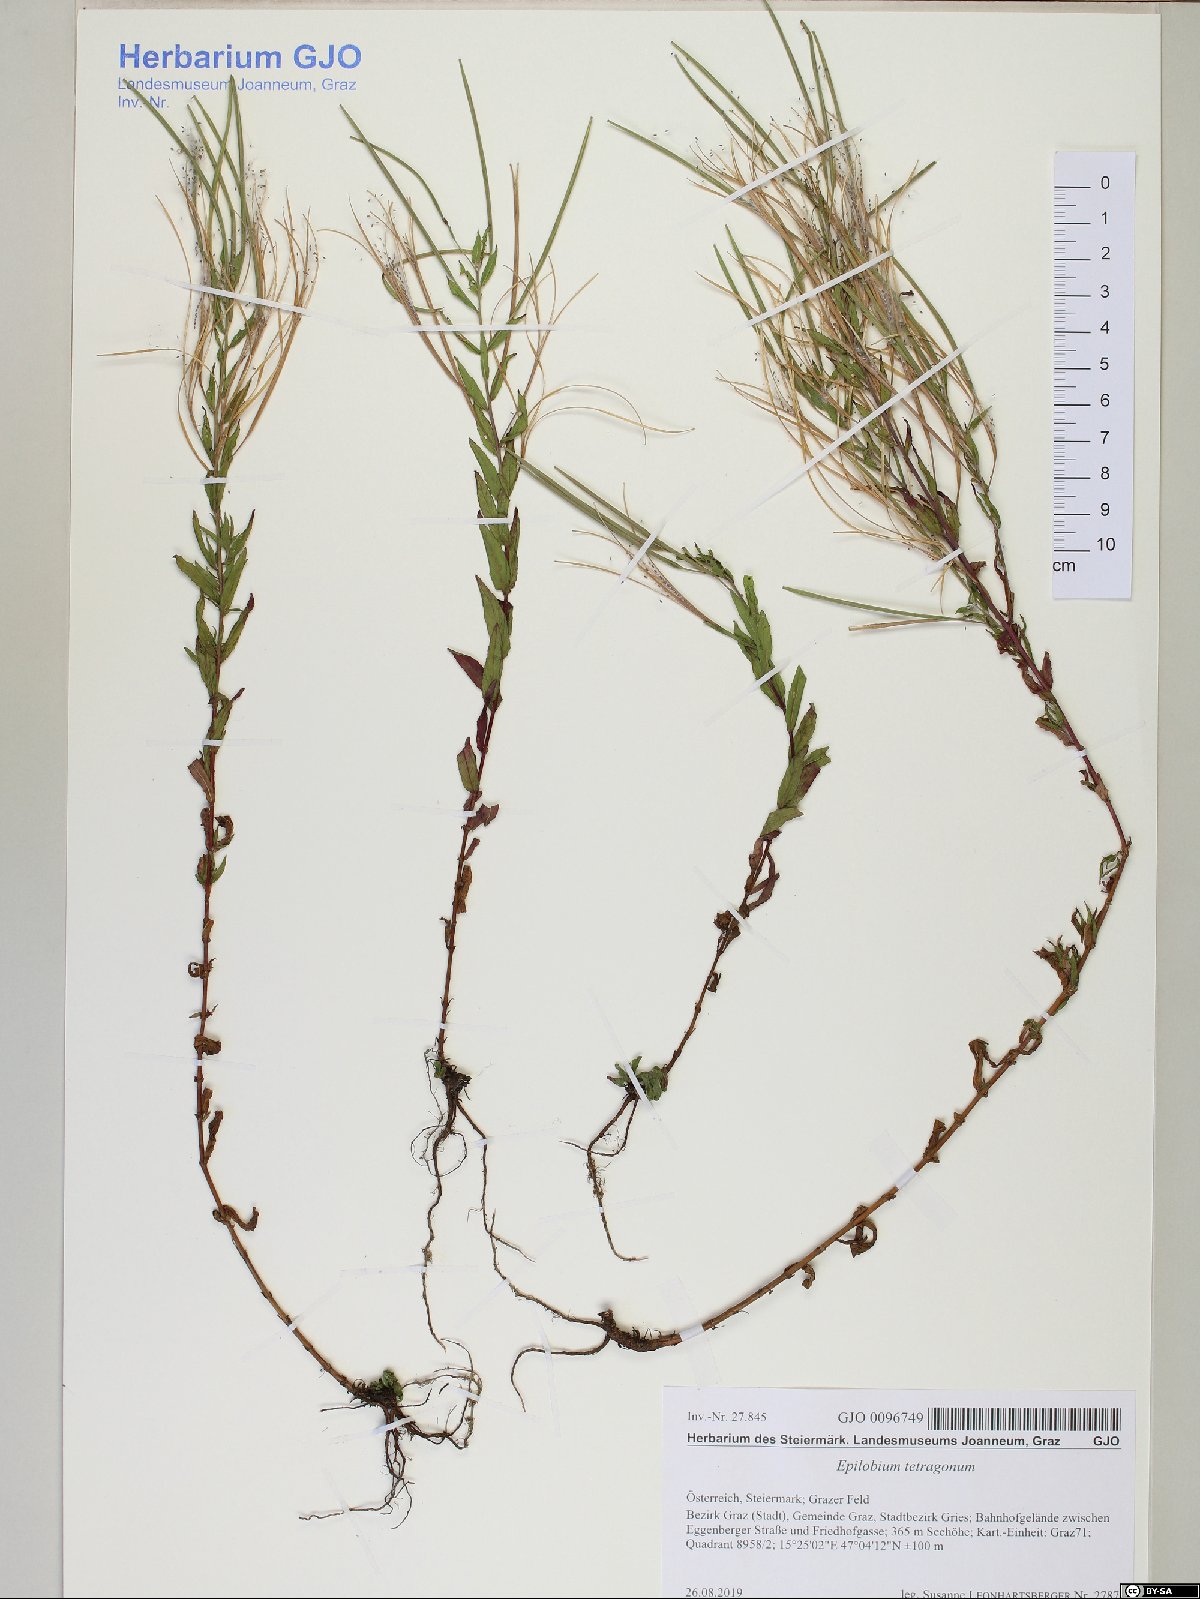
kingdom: Plantae
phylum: Tracheophyta
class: Magnoliopsida
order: Myrtales
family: Onagraceae
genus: Epilobium
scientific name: Epilobium tetragonum
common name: Square-stemmed willowherb
